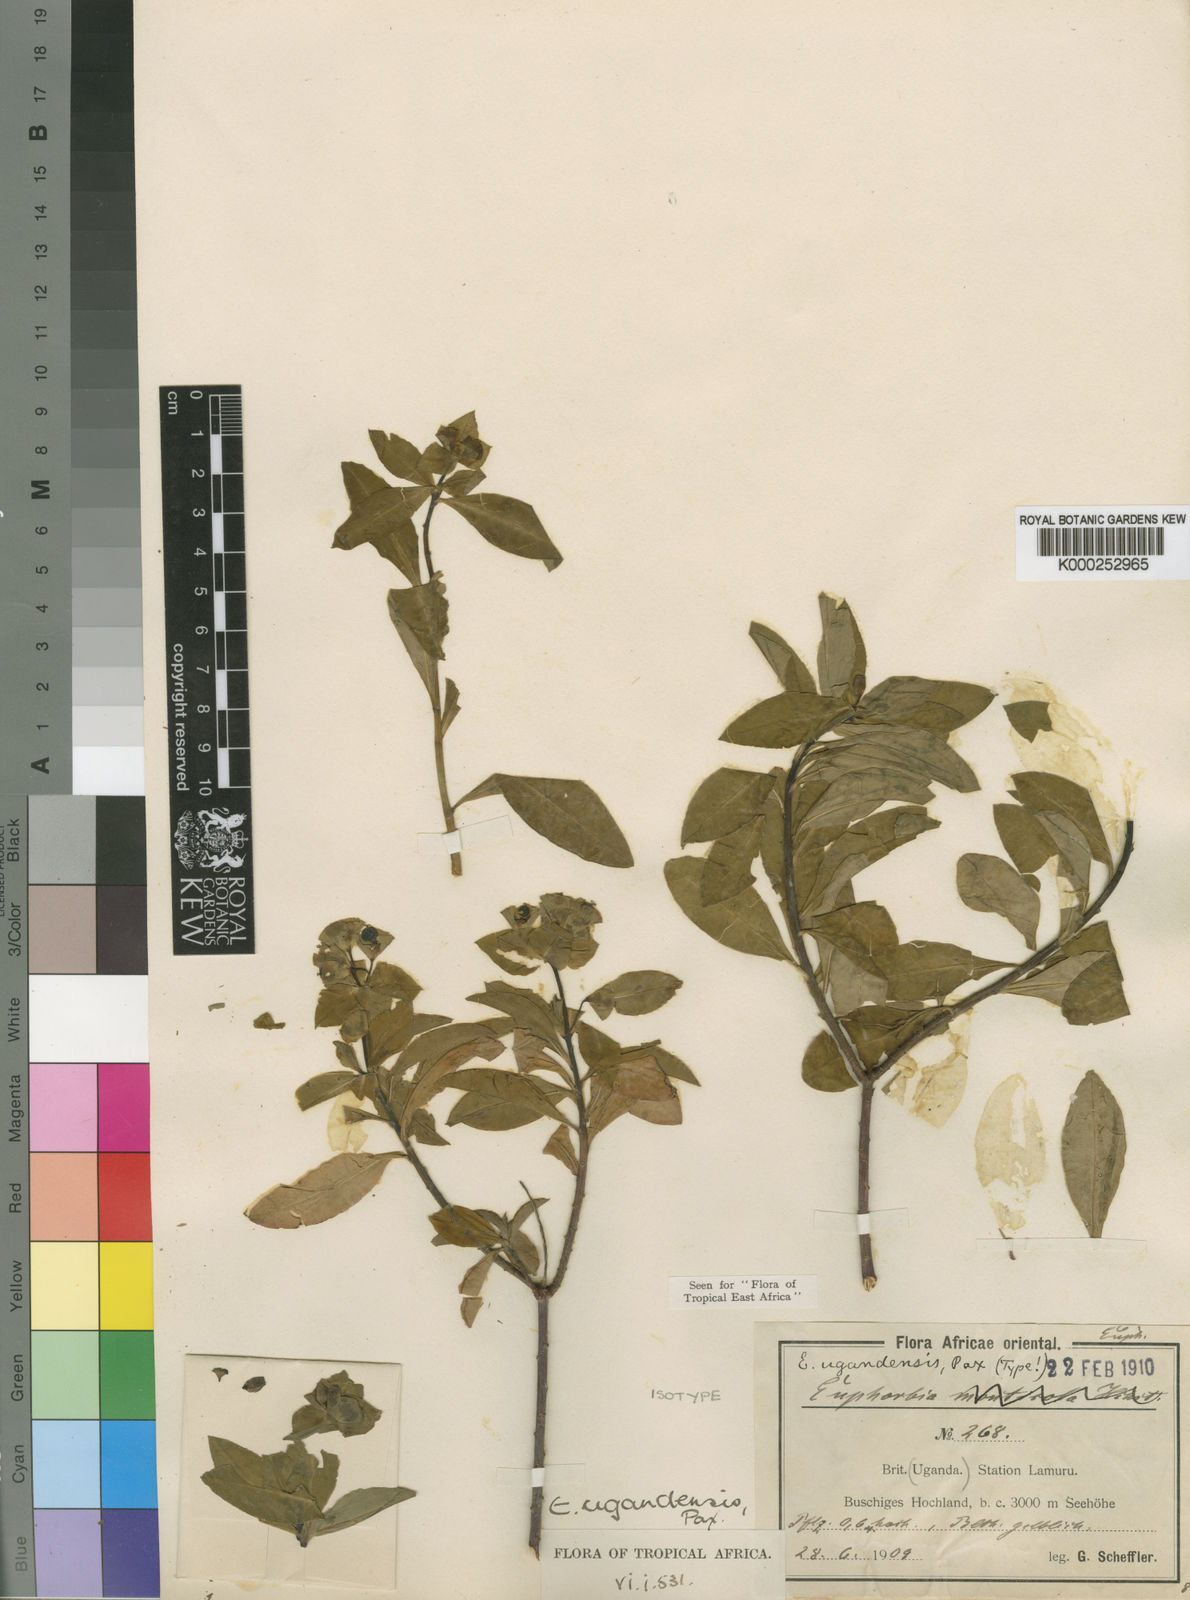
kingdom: Plantae
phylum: Tracheophyta
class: Magnoliopsida
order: Malpighiales
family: Euphorbiaceae
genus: Euphorbia
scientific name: Euphorbia ugandensis
